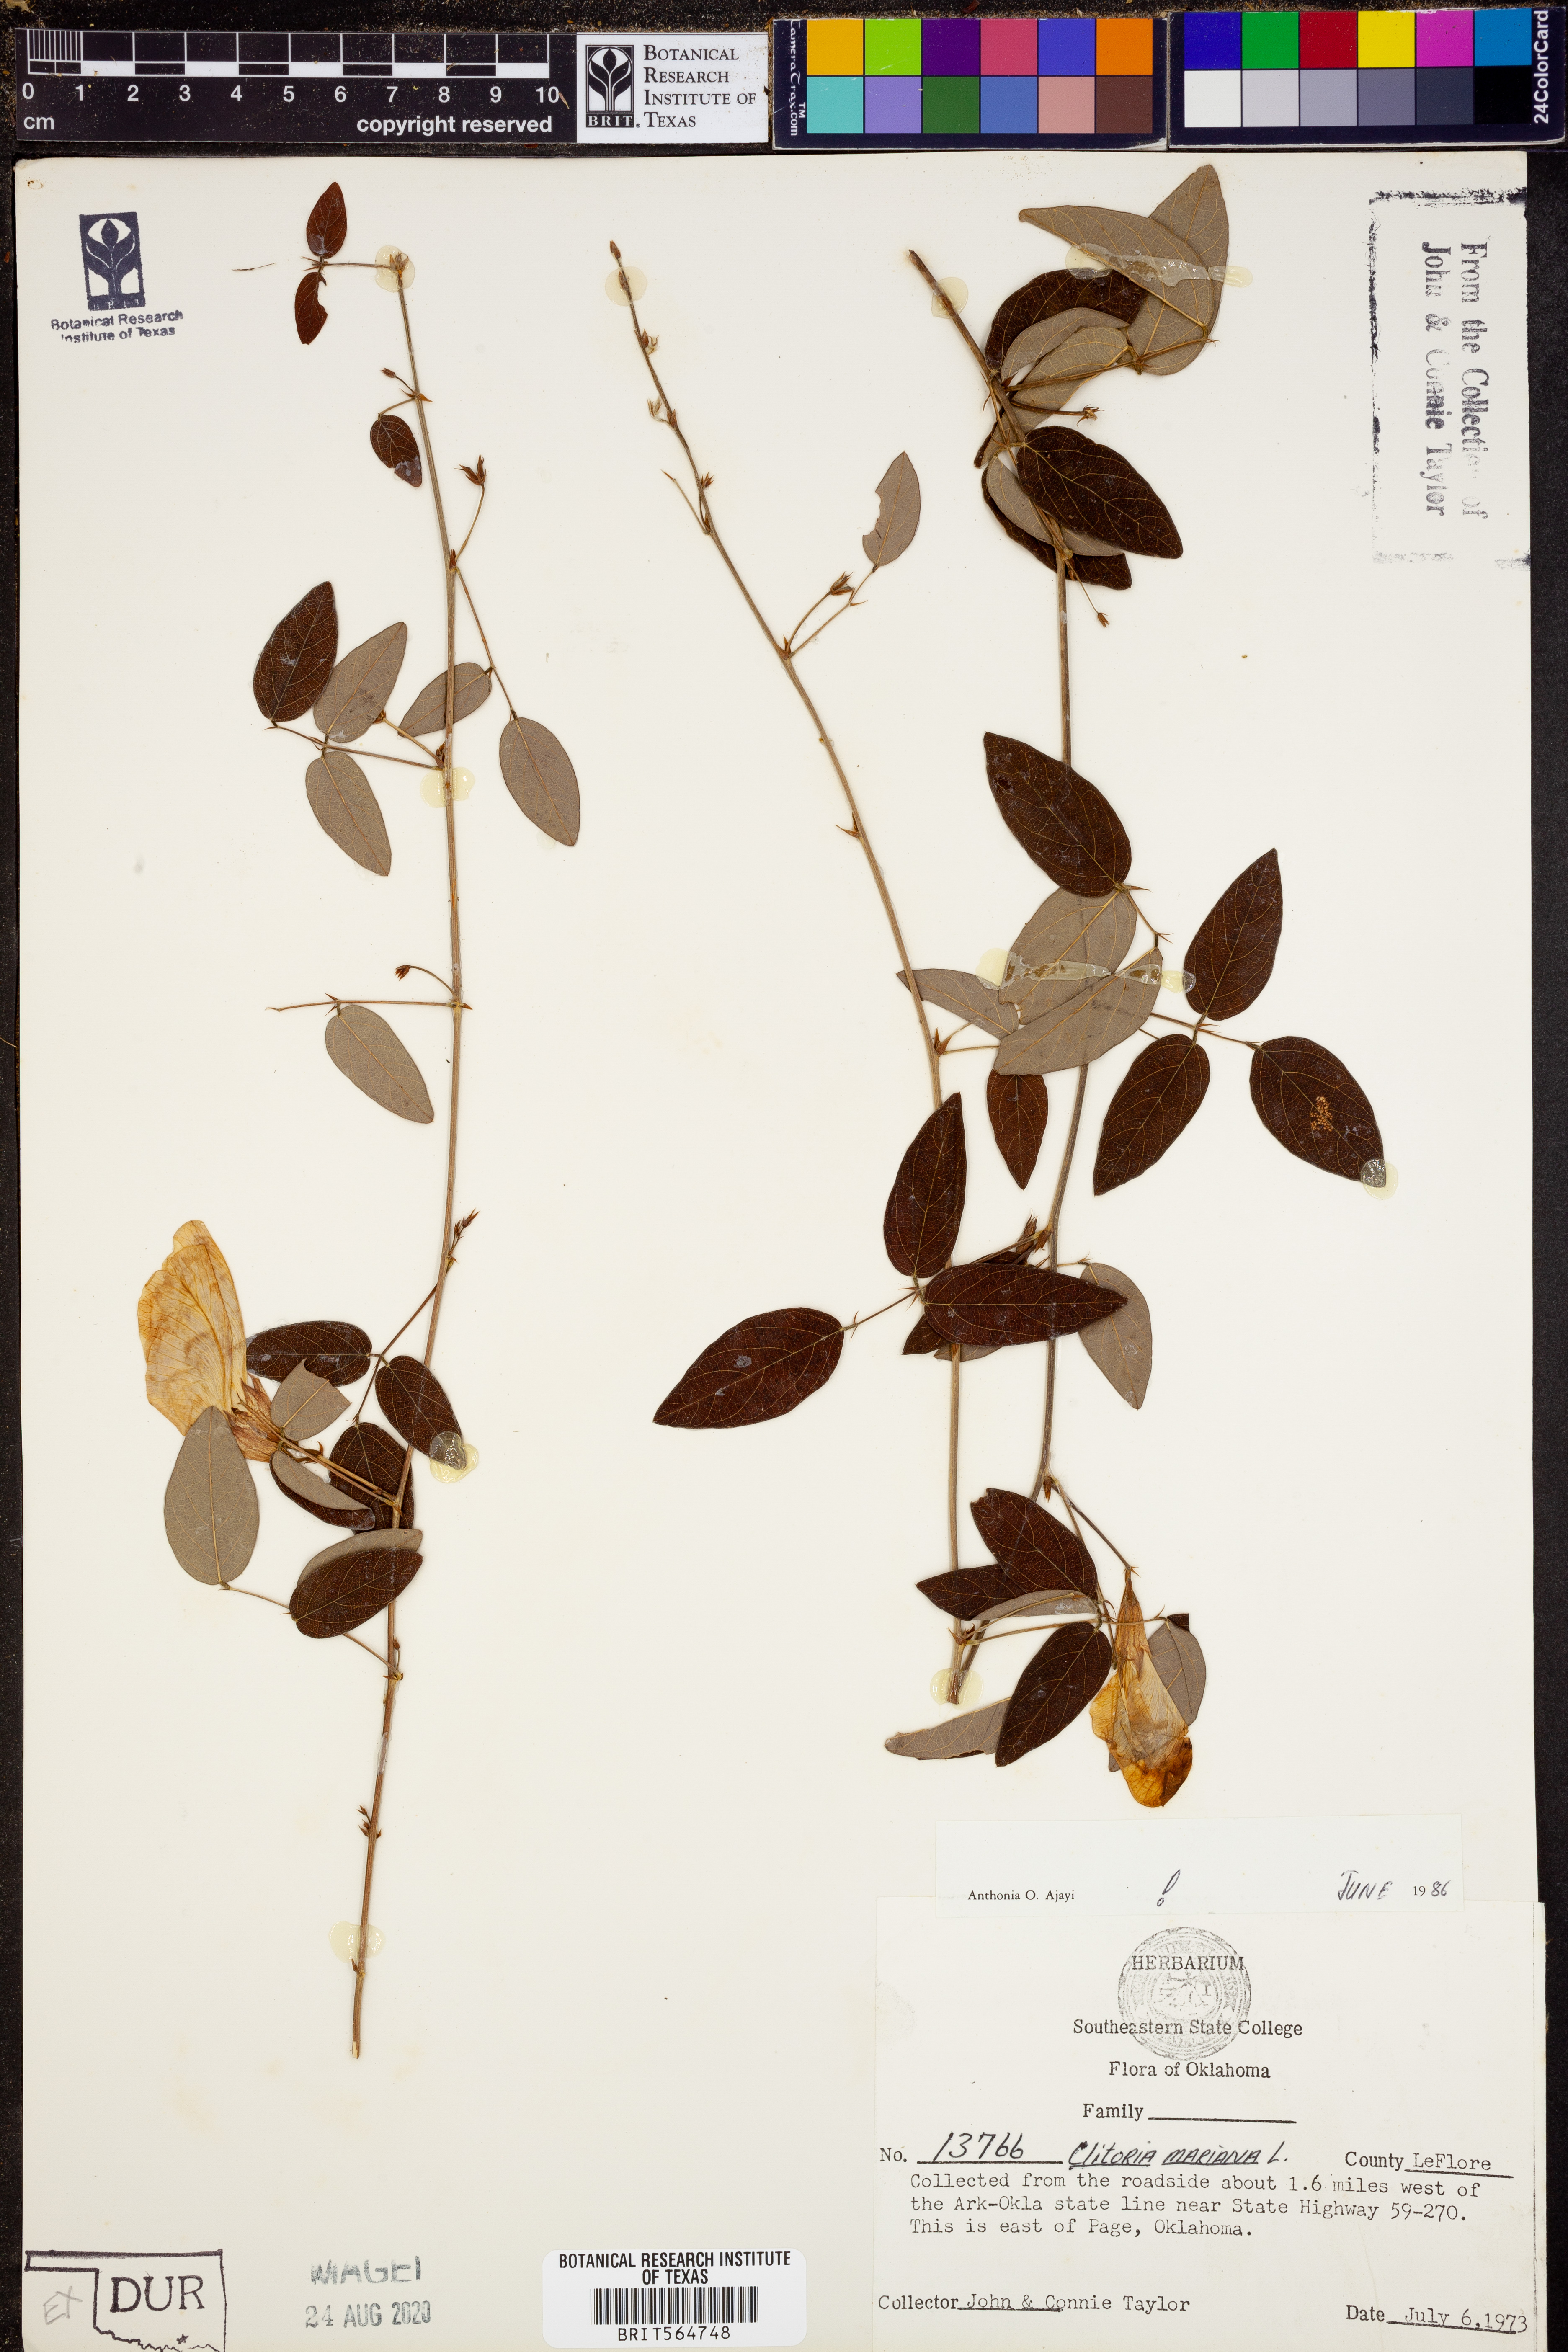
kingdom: Plantae
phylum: Tracheophyta
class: Magnoliopsida
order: Fabales
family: Fabaceae
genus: Clitoria
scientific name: Clitoria mariana
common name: Butterfly-pea
